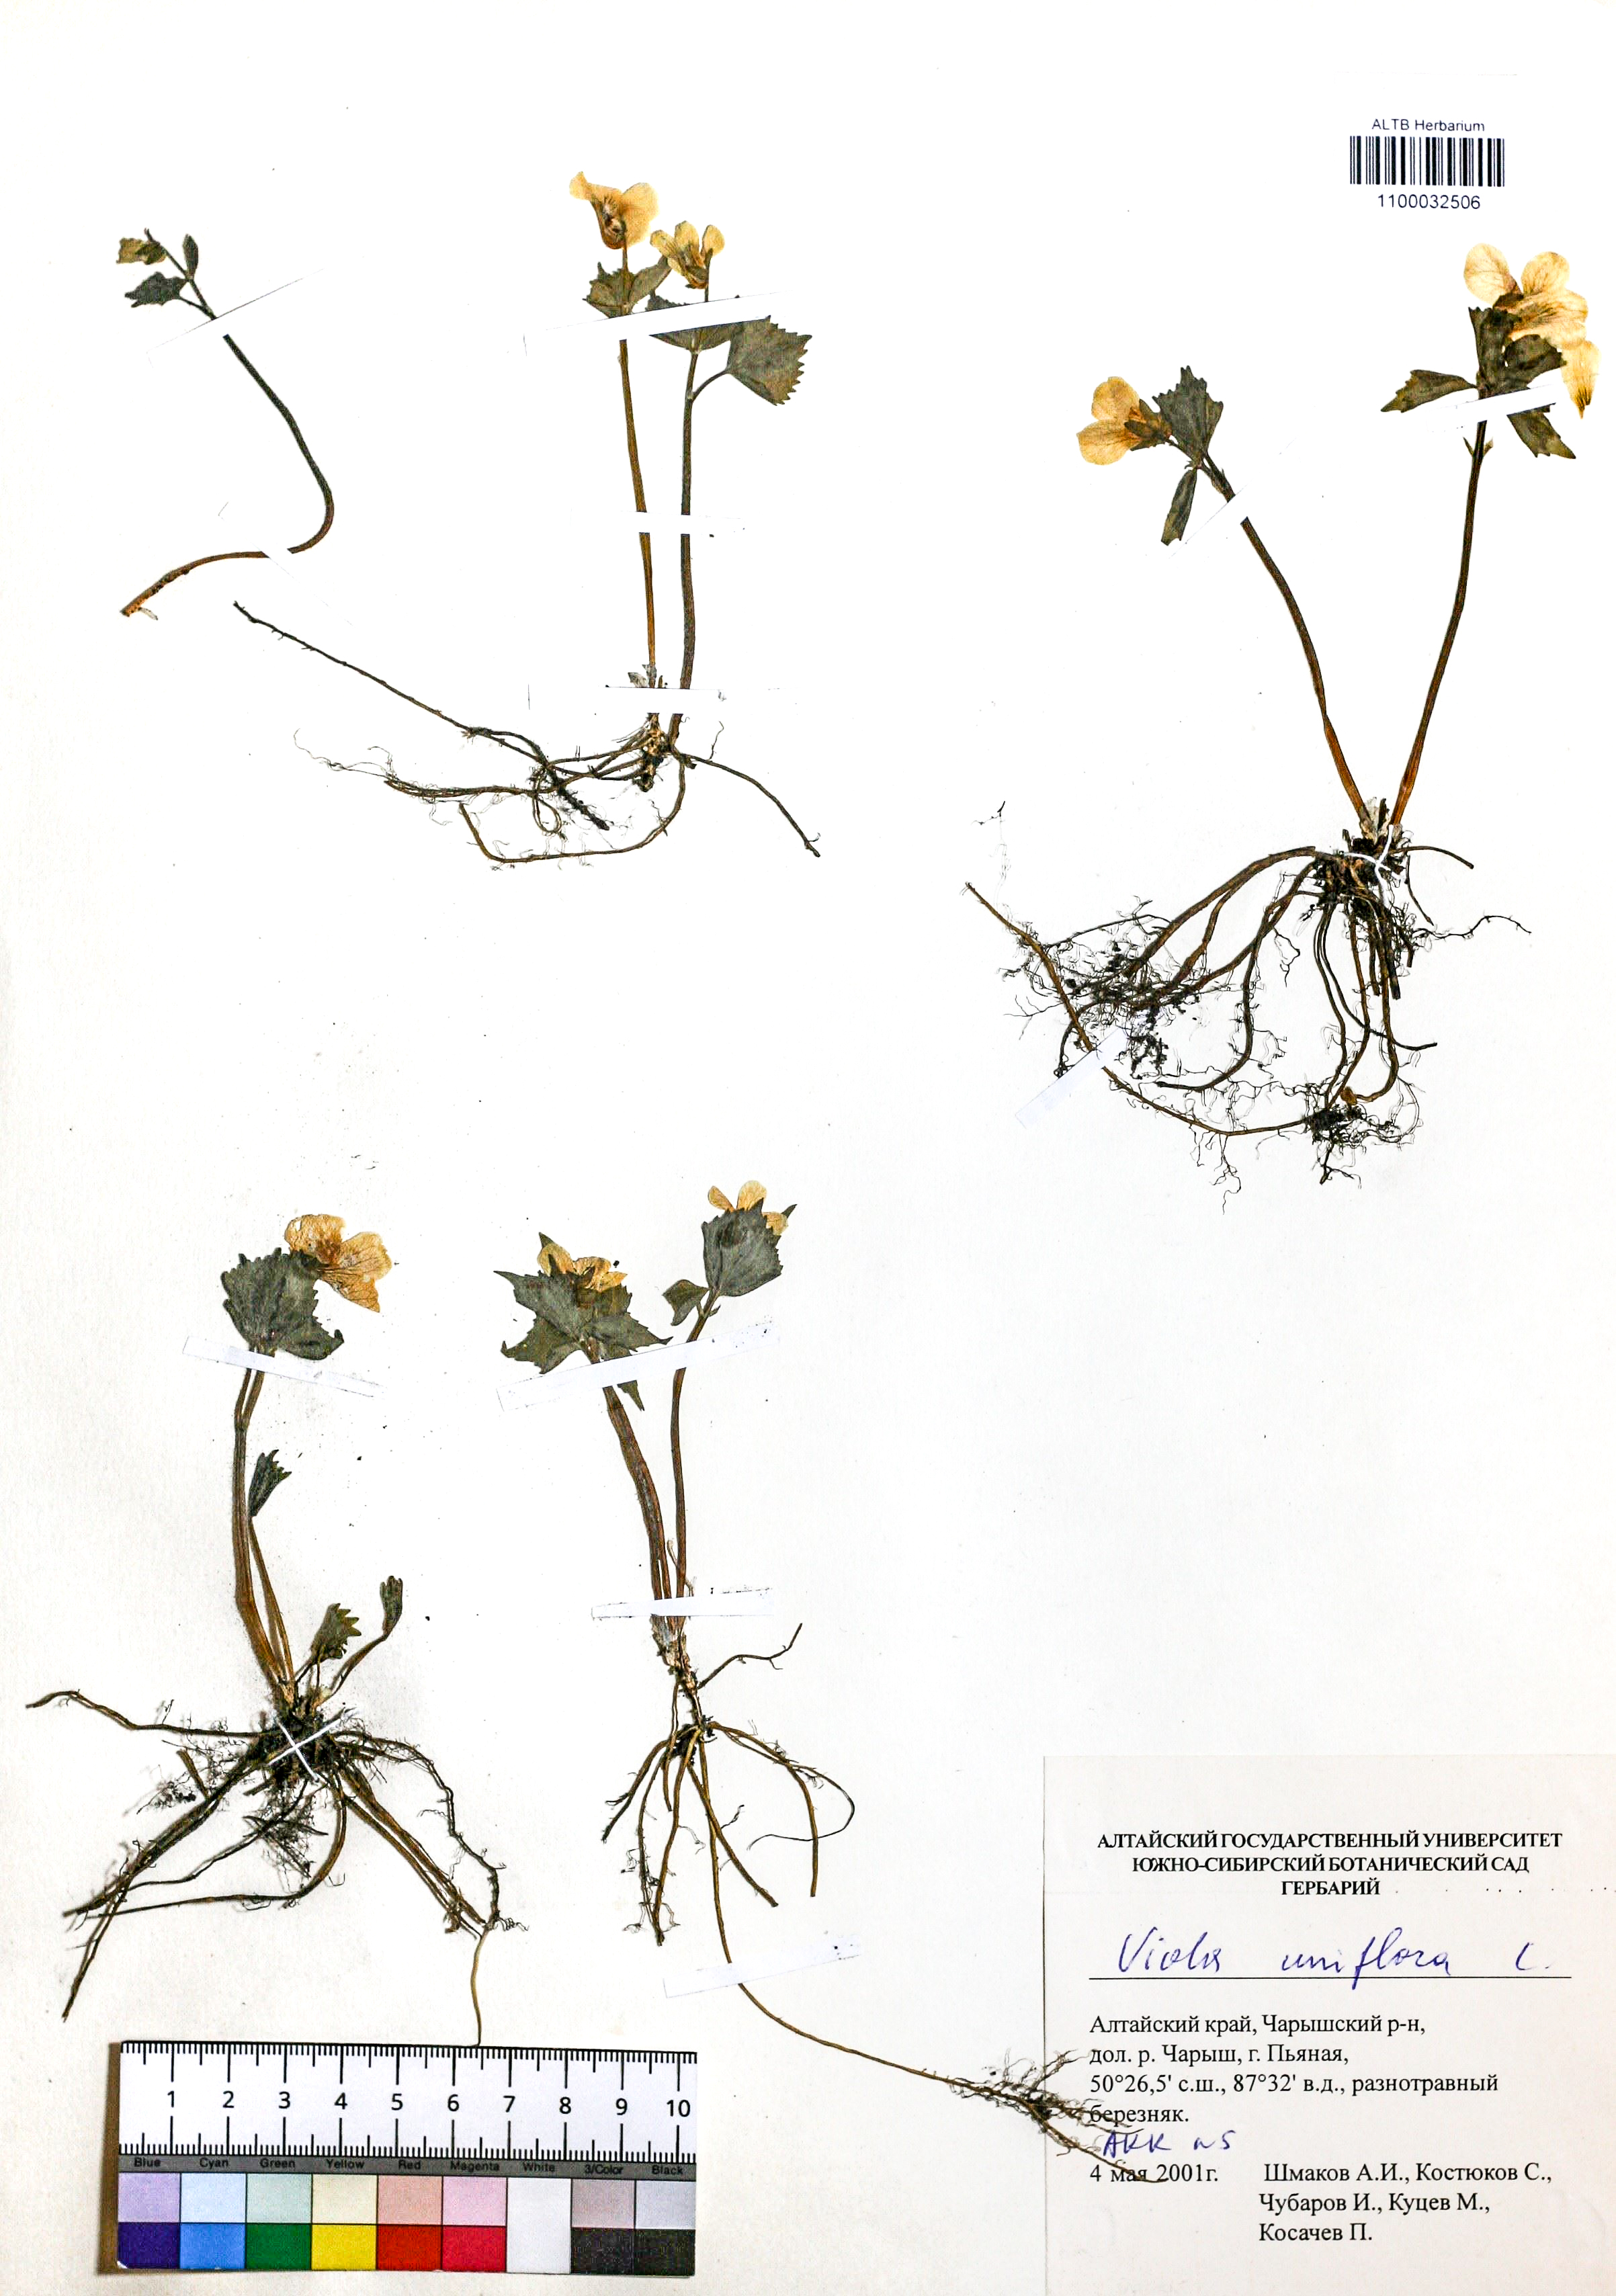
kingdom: Plantae
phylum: Tracheophyta
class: Magnoliopsida
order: Malpighiales
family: Violaceae
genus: Viola
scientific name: Viola uniflora
